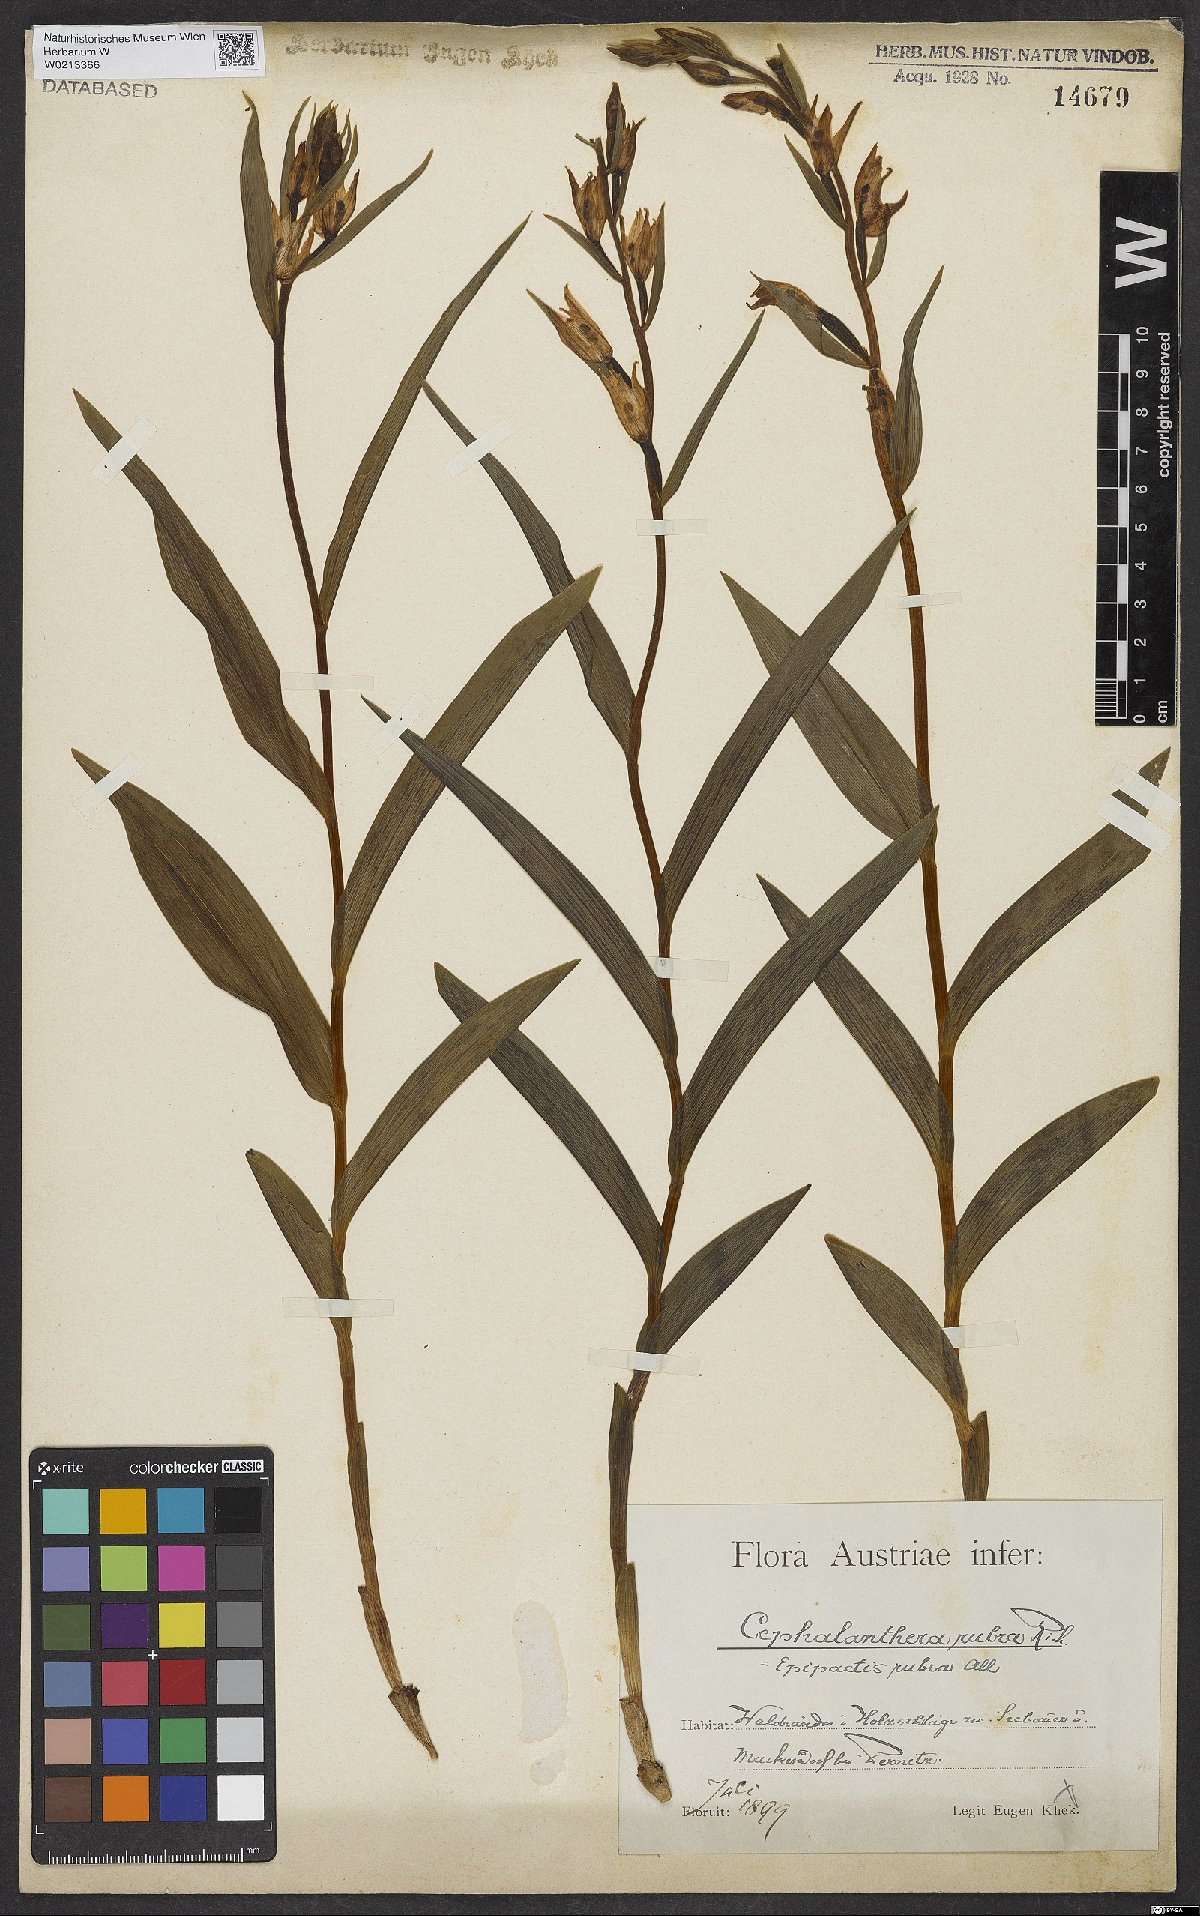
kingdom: Plantae
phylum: Tracheophyta
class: Liliopsida
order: Asparagales
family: Orchidaceae
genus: Cephalanthera
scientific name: Cephalanthera rubra
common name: Red helleborine
